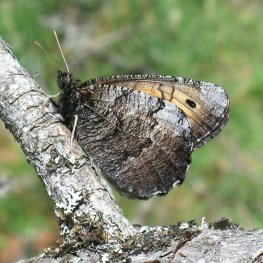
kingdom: Animalia
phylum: Arthropoda
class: Insecta
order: Lepidoptera
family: Nymphalidae
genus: Oeneis
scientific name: Oeneis macounii
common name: Macoun's Arctic
